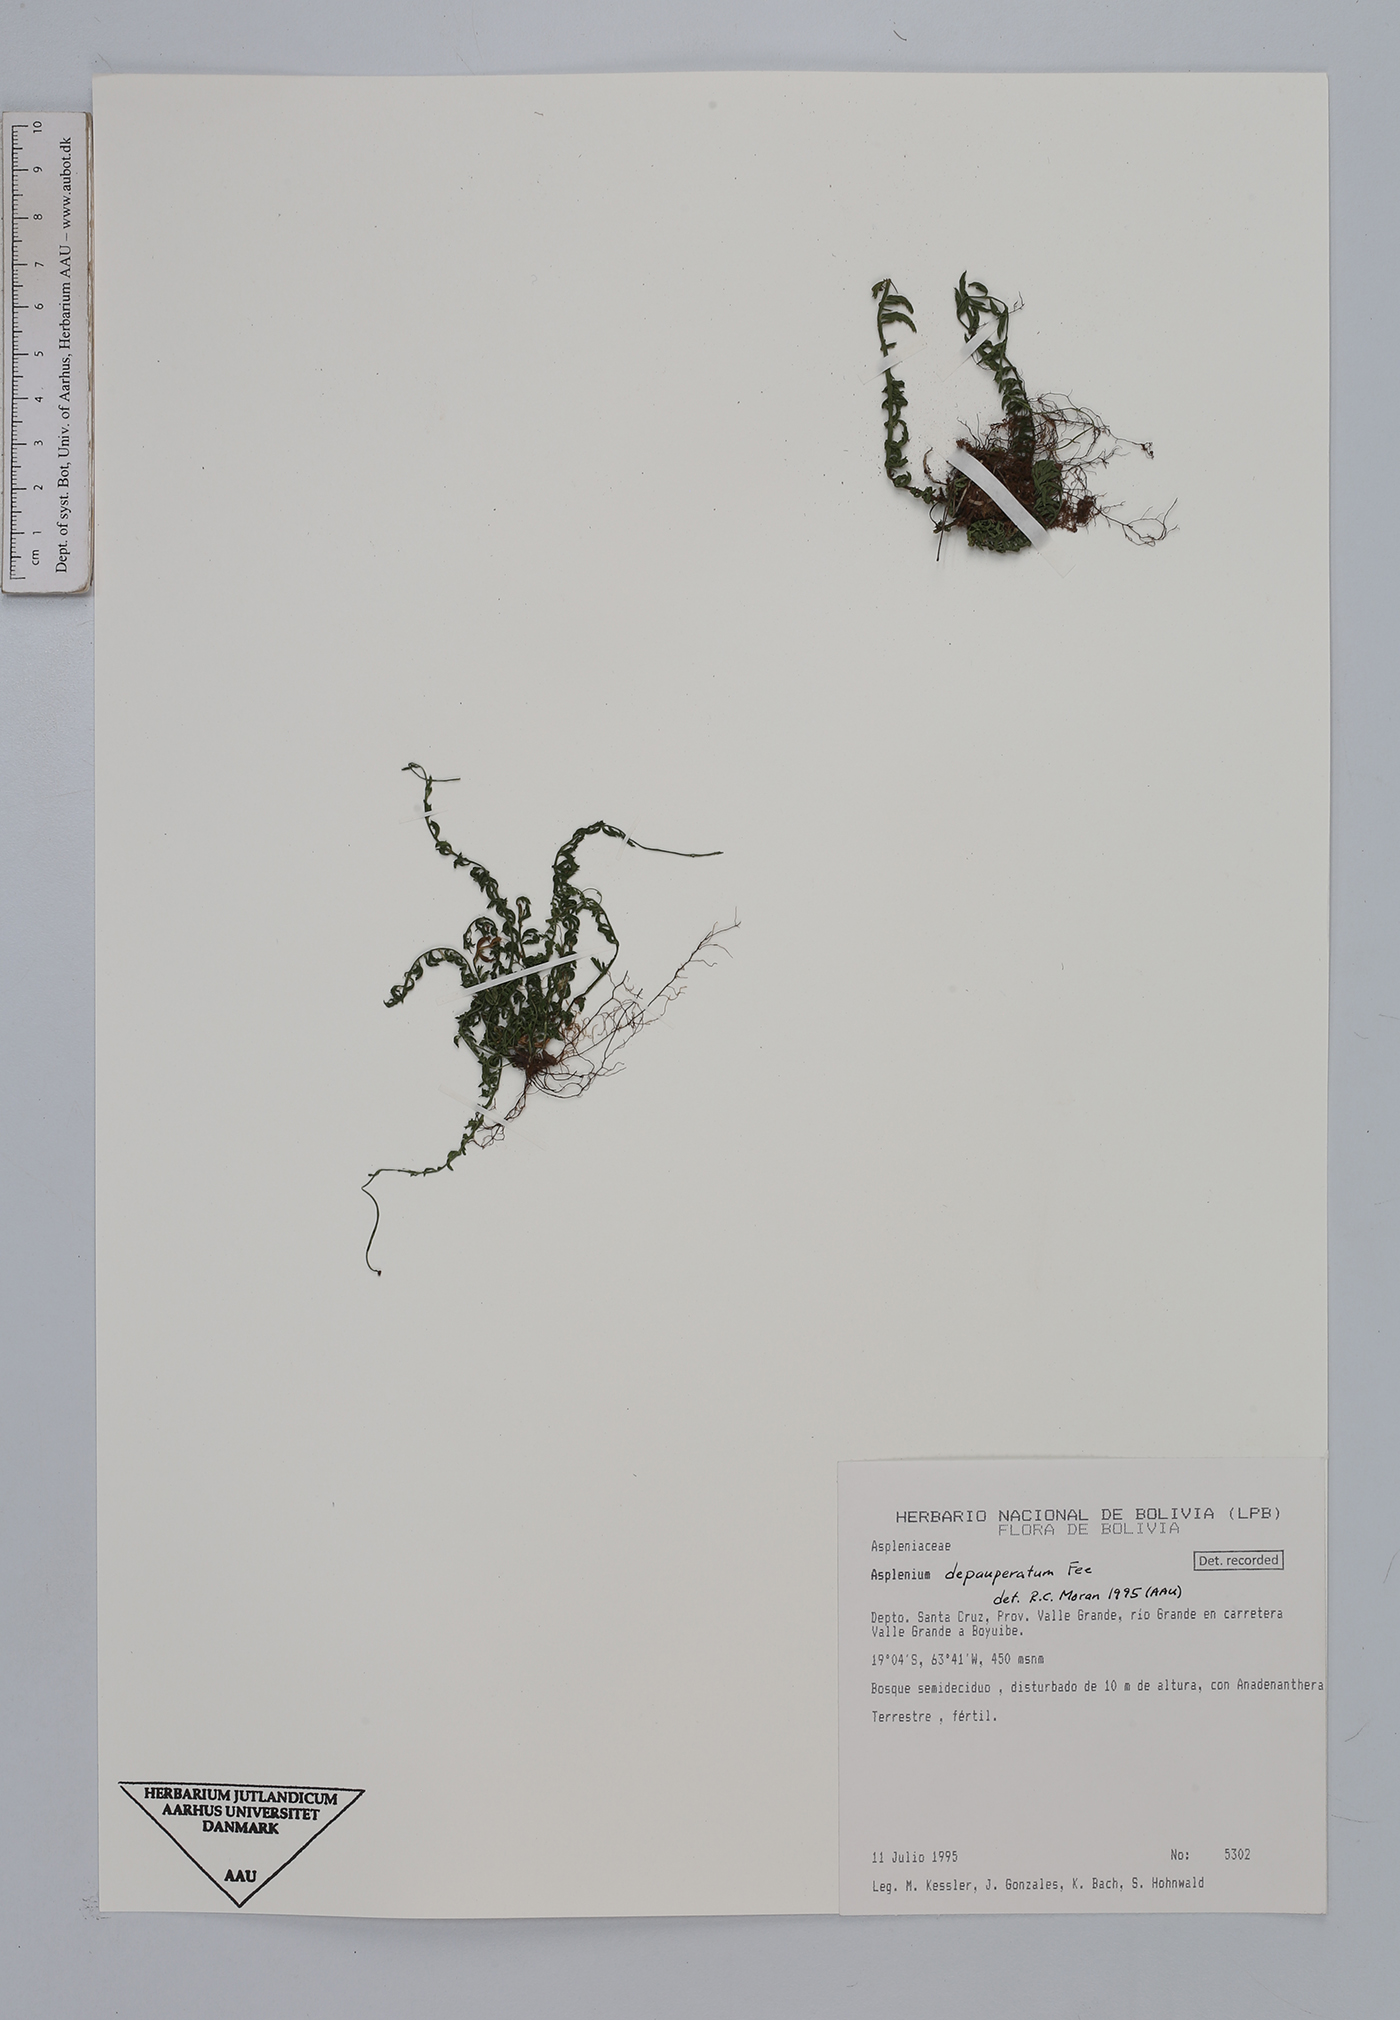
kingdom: Plantae
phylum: Tracheophyta
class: Polypodiopsida
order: Polypodiales
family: Aspleniaceae
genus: Asplenium
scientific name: Asplenium depauperatum
